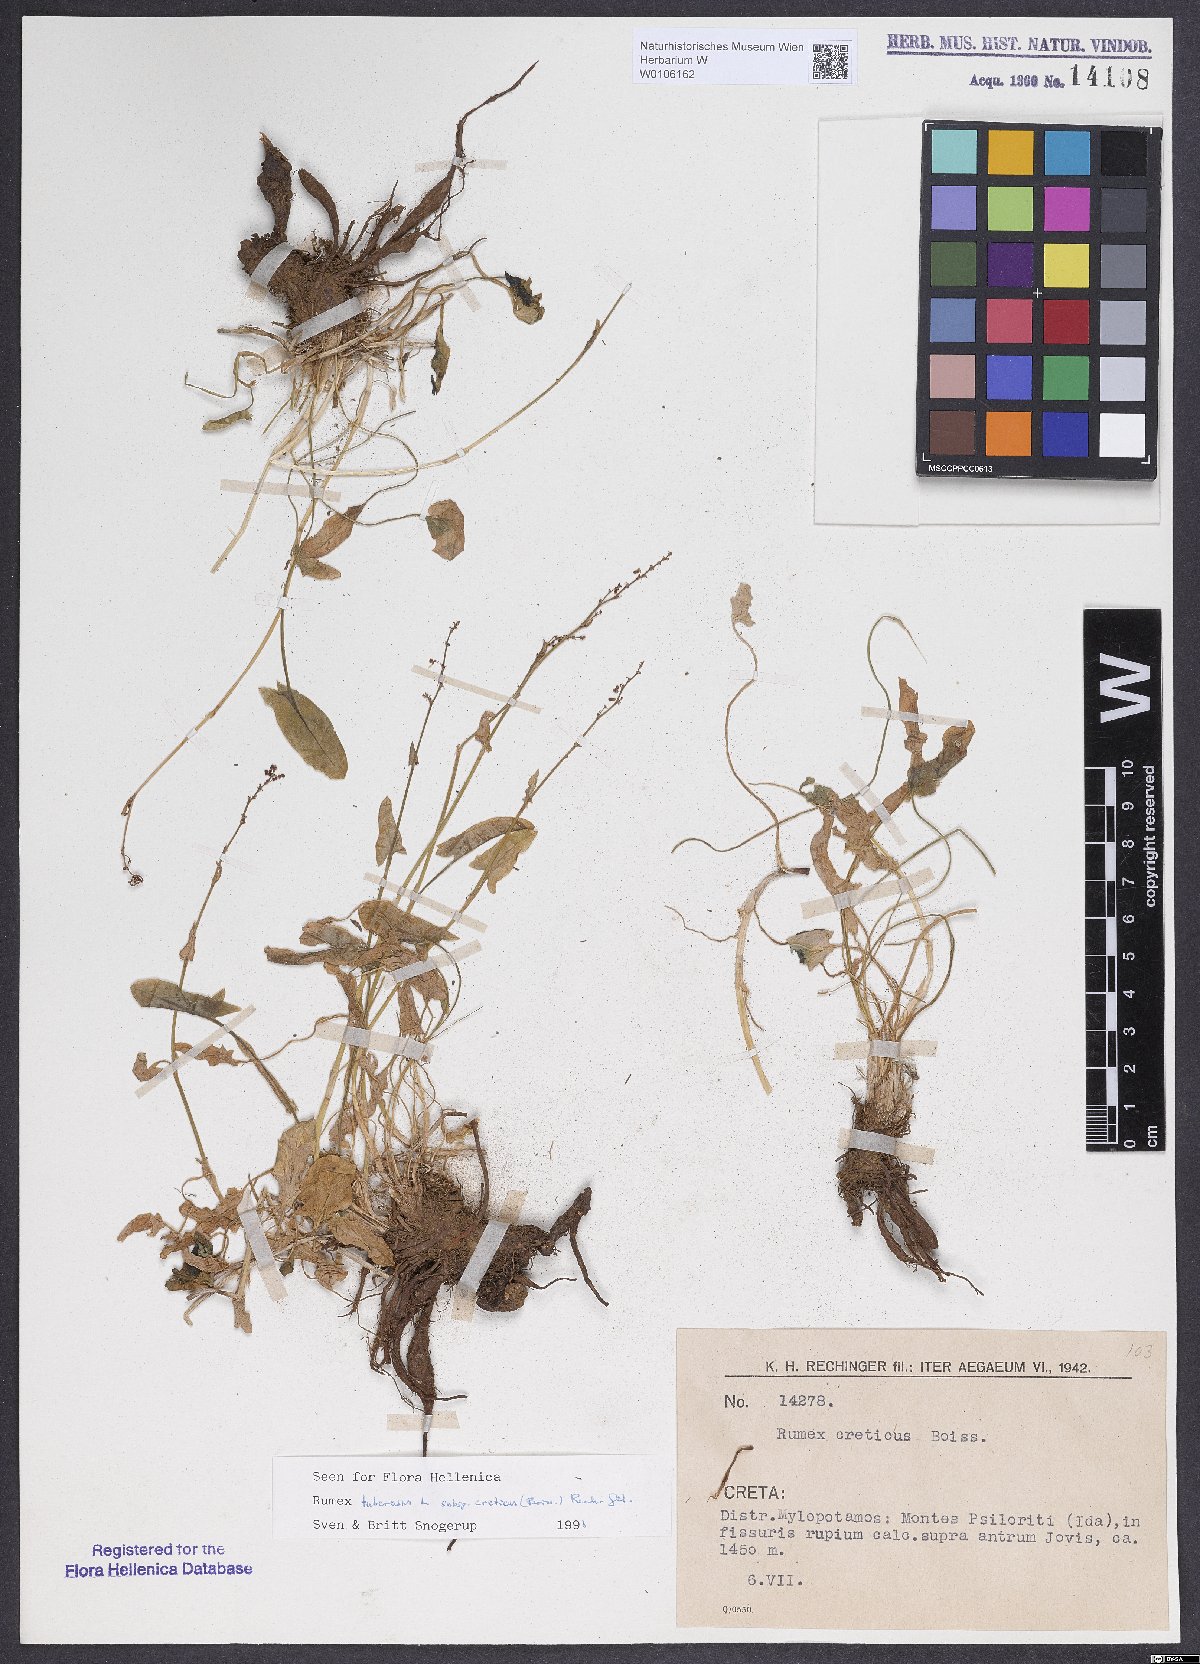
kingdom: Plantae
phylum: Tracheophyta
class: Magnoliopsida
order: Caryophyllales
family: Polygonaceae
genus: Rumex
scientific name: Rumex tuberosus
